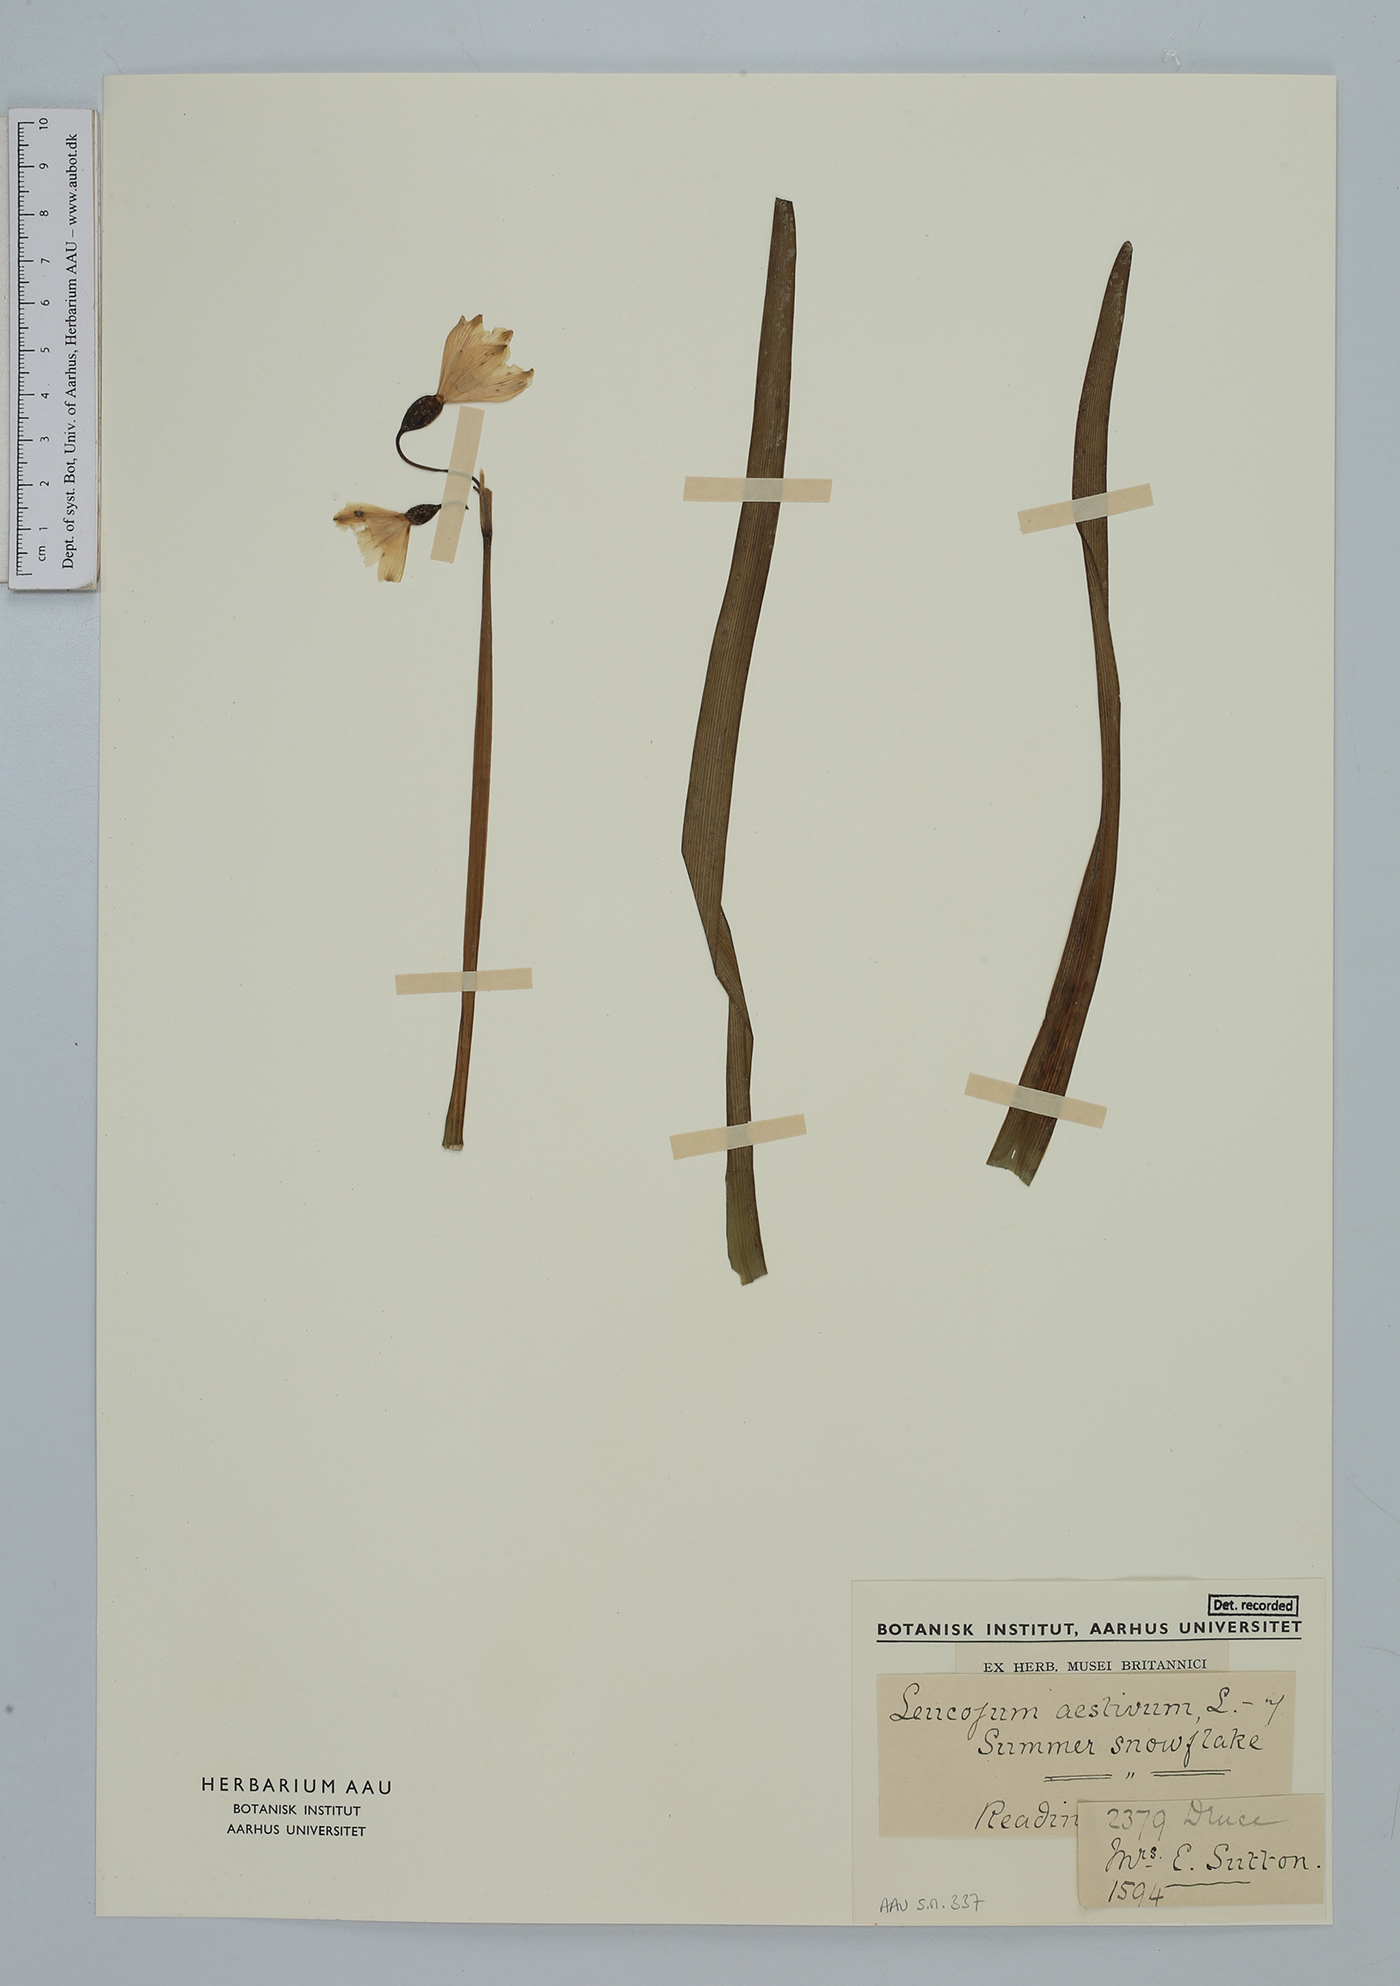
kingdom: Plantae
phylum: Tracheophyta
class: Liliopsida
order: Asparagales
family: Amaryllidaceae
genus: Leucojum
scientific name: Leucojum aestivum
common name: Summer snowflake
